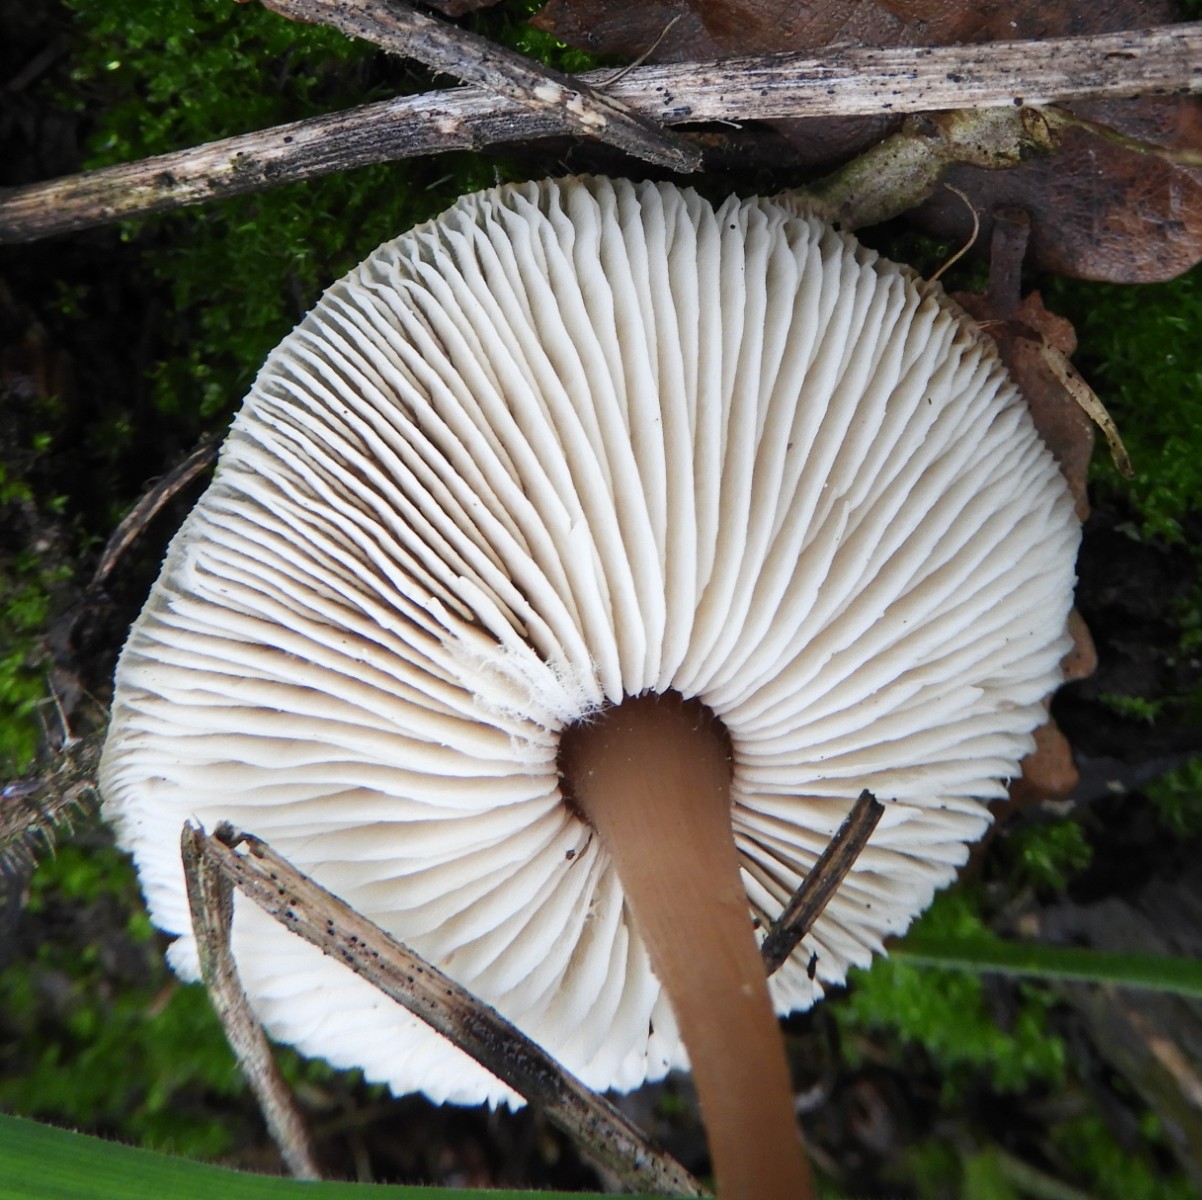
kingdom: Fungi
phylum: Basidiomycota
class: Agaricomycetes
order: Agaricales
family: Omphalotaceae
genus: Rhodocollybia
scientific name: Rhodocollybia asema
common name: horngrå fladhat
